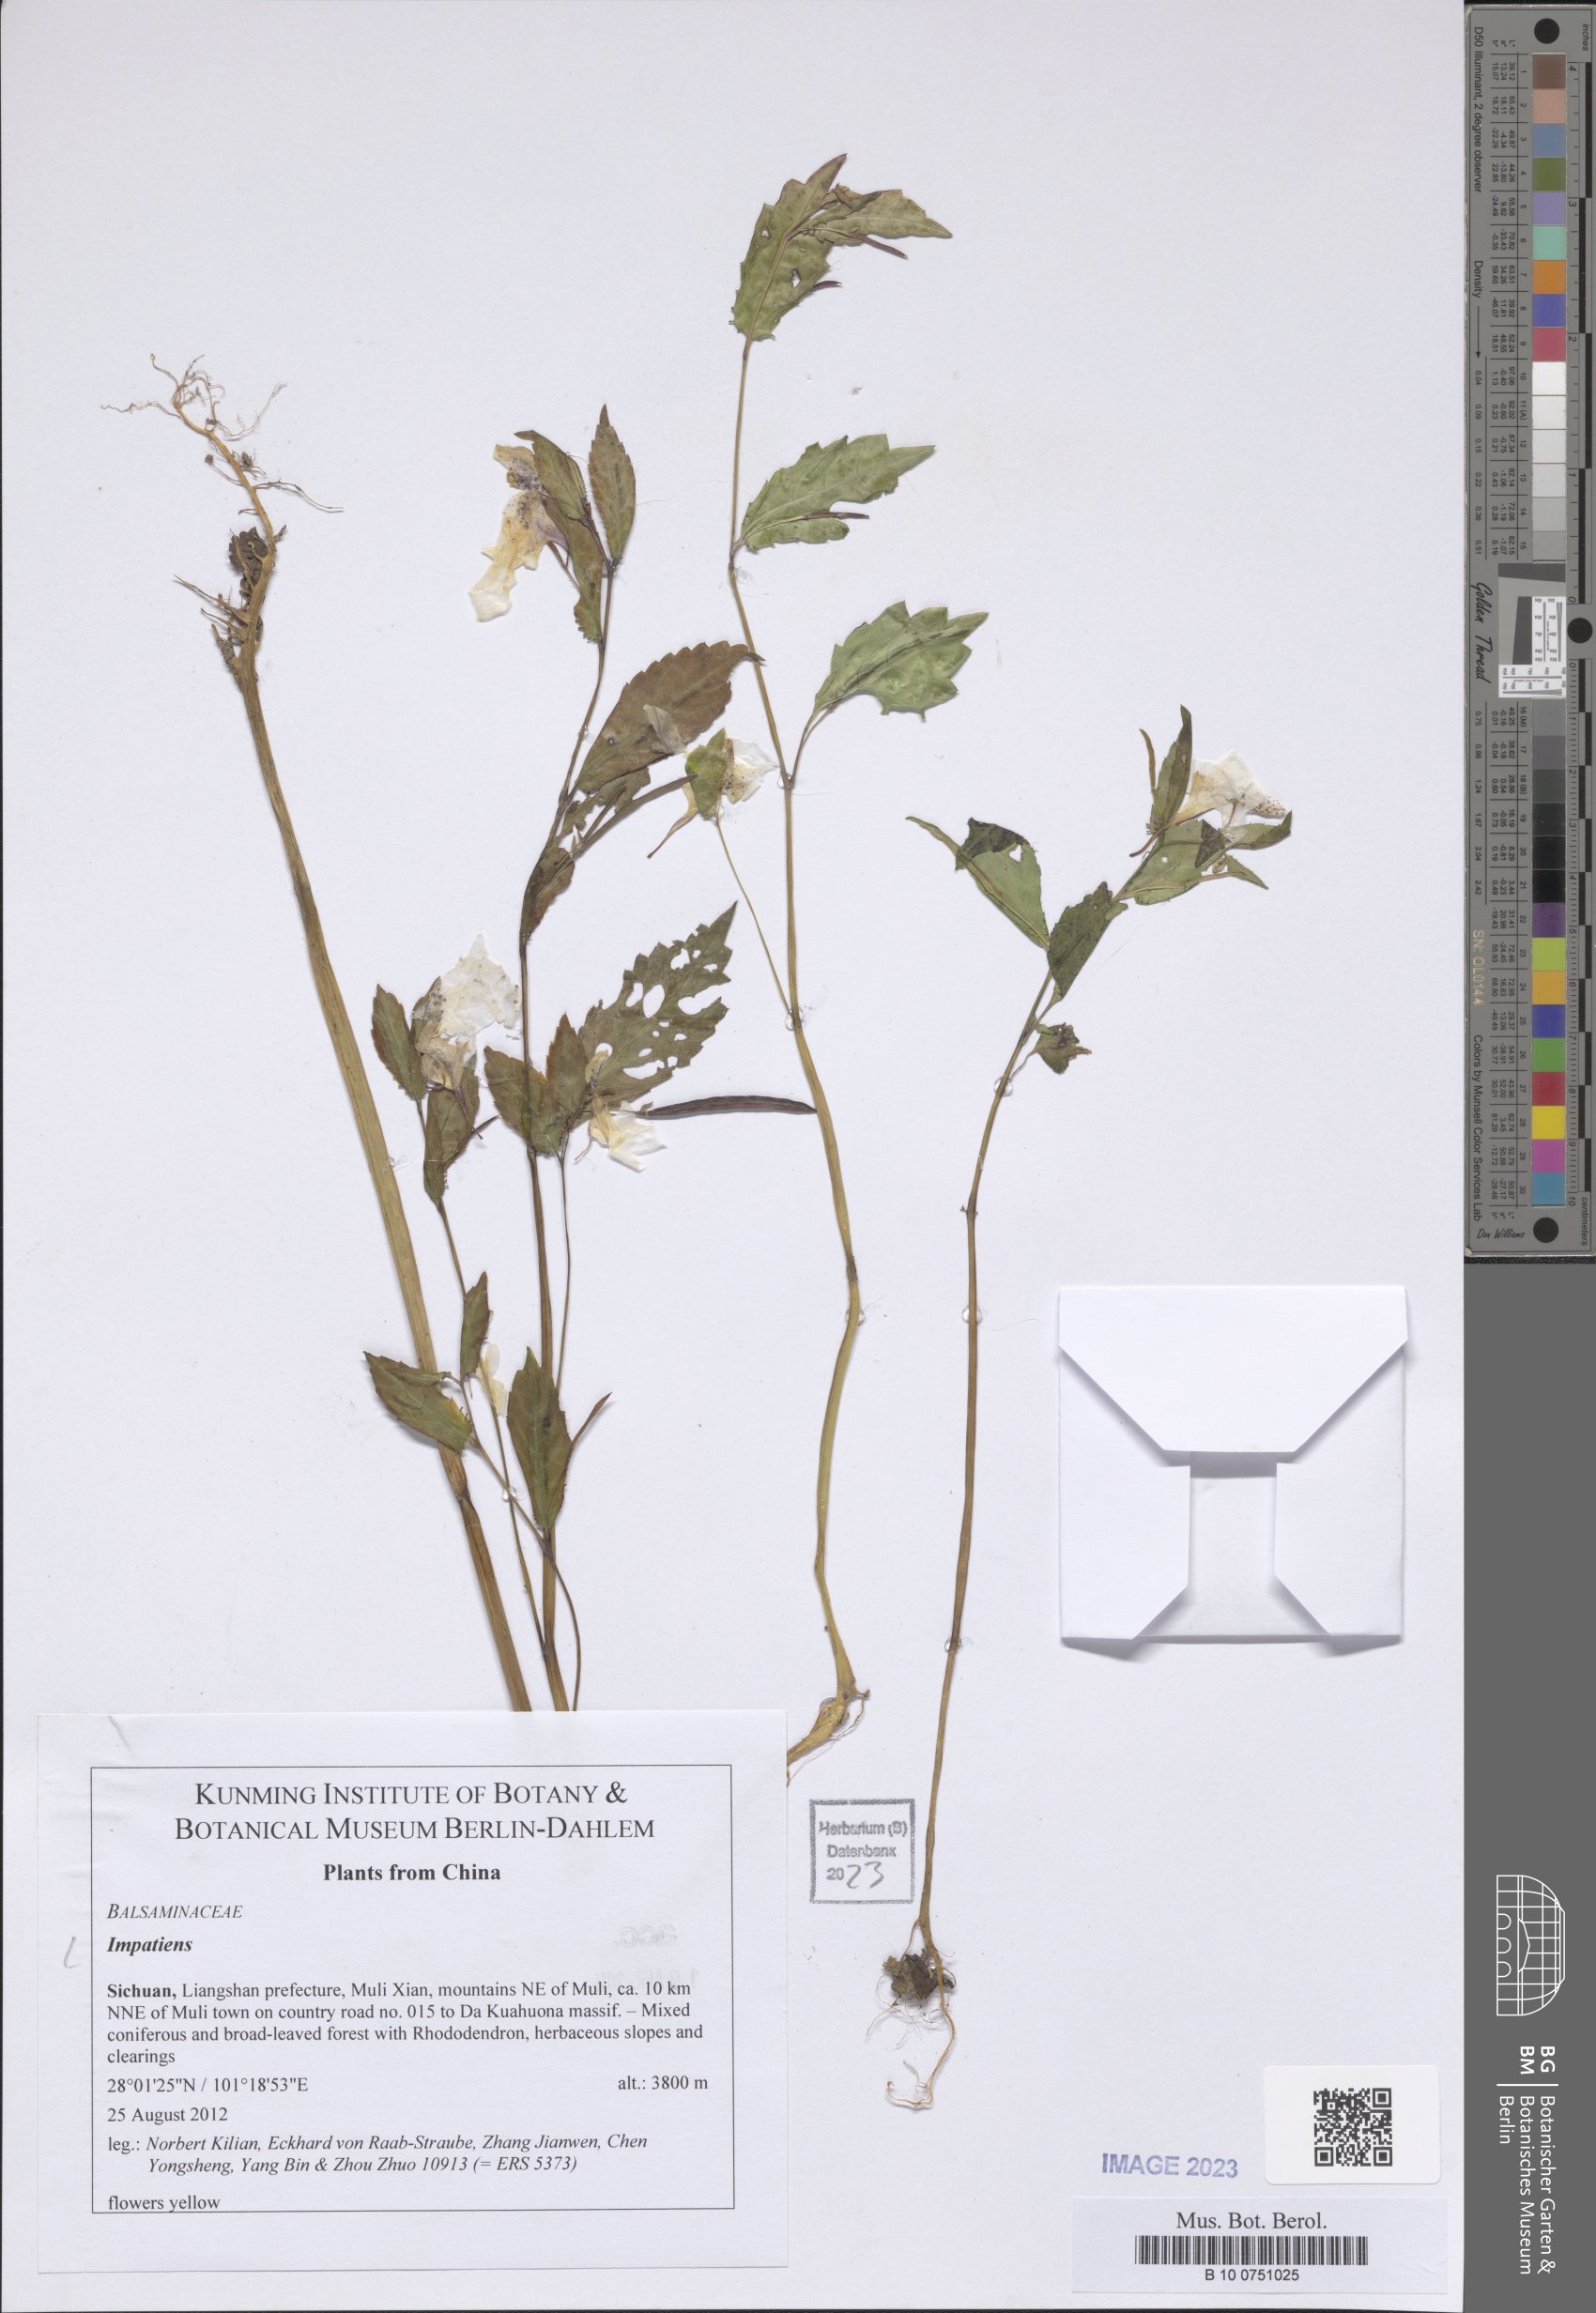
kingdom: Plantae
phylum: Tracheophyta
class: Magnoliopsida
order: Ericales
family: Balsaminaceae
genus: Impatiens
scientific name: Impatiens
